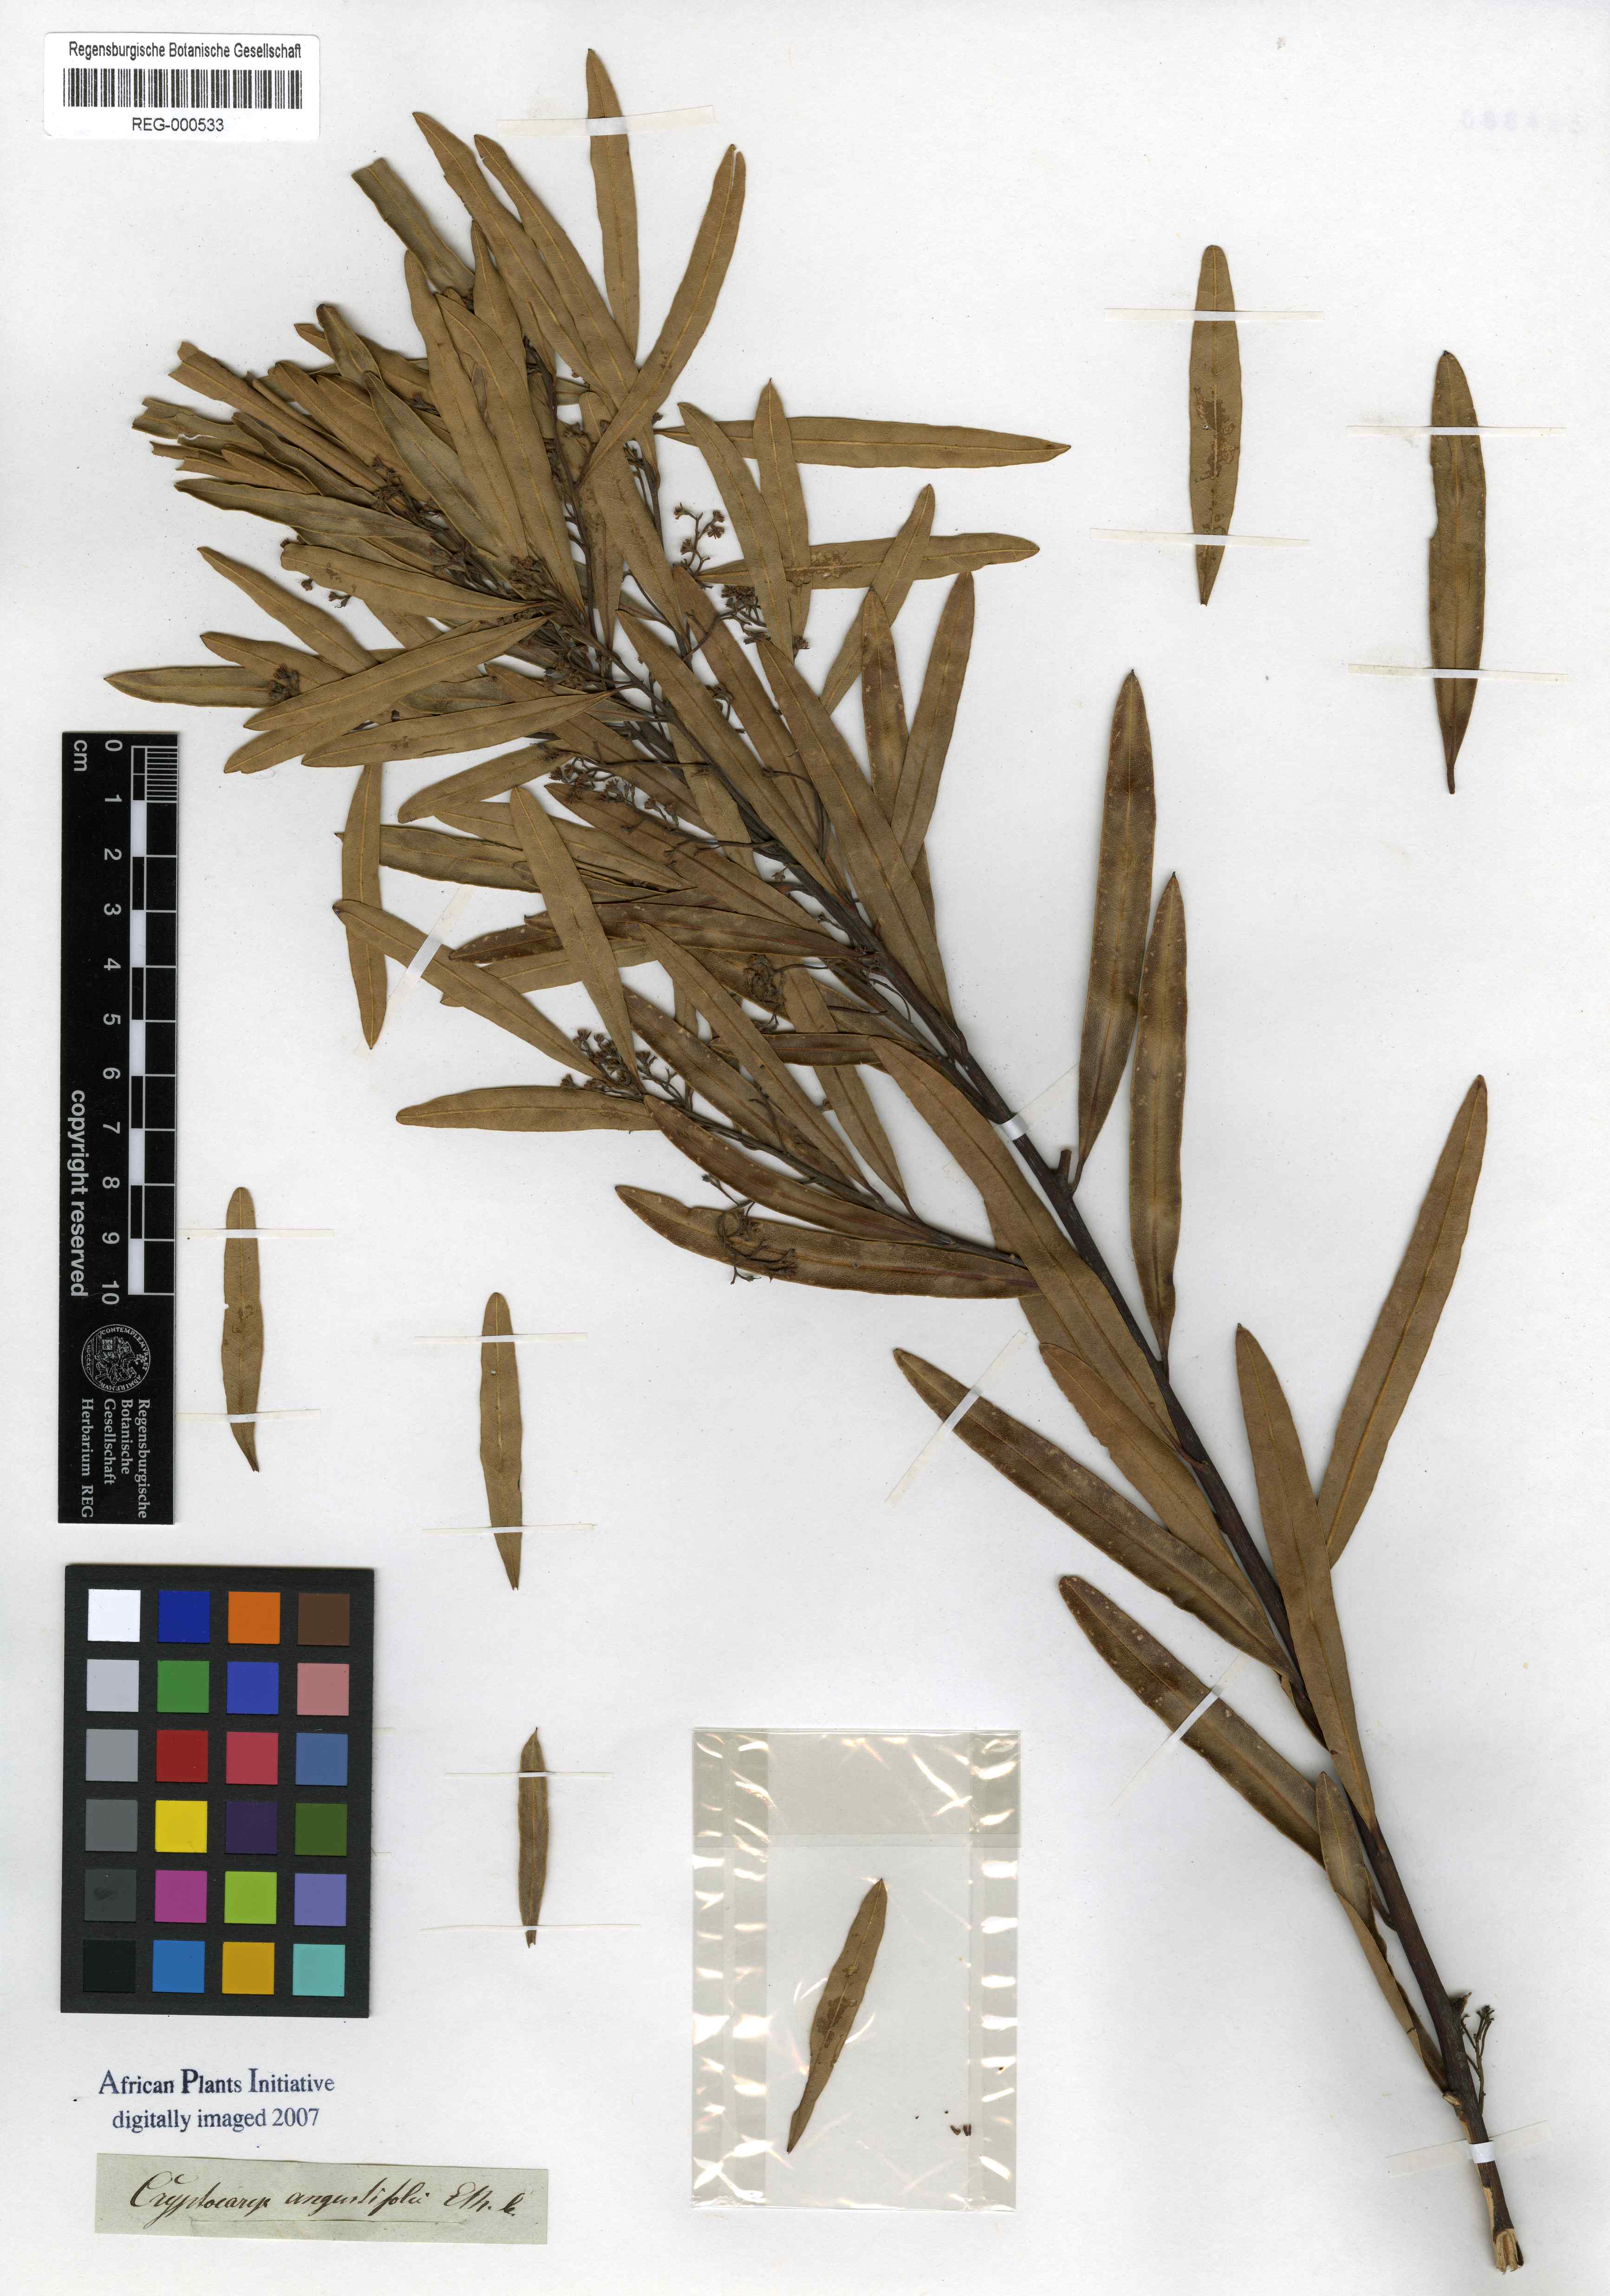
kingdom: Plantae
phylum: Tracheophyta
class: Magnoliopsida
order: Laurales
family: Lauraceae
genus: Cryptocarya
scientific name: Cryptocarya angustifolia
